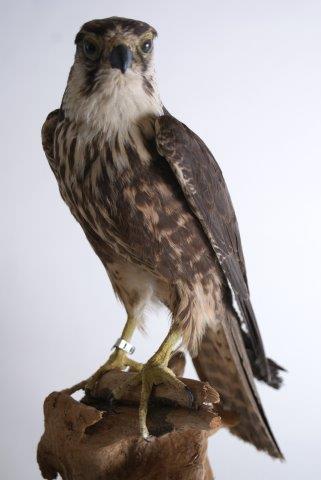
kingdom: Animalia
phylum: Chordata
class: Aves
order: Falconiformes
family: Falconidae
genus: Falco
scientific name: Falco rusticolus
